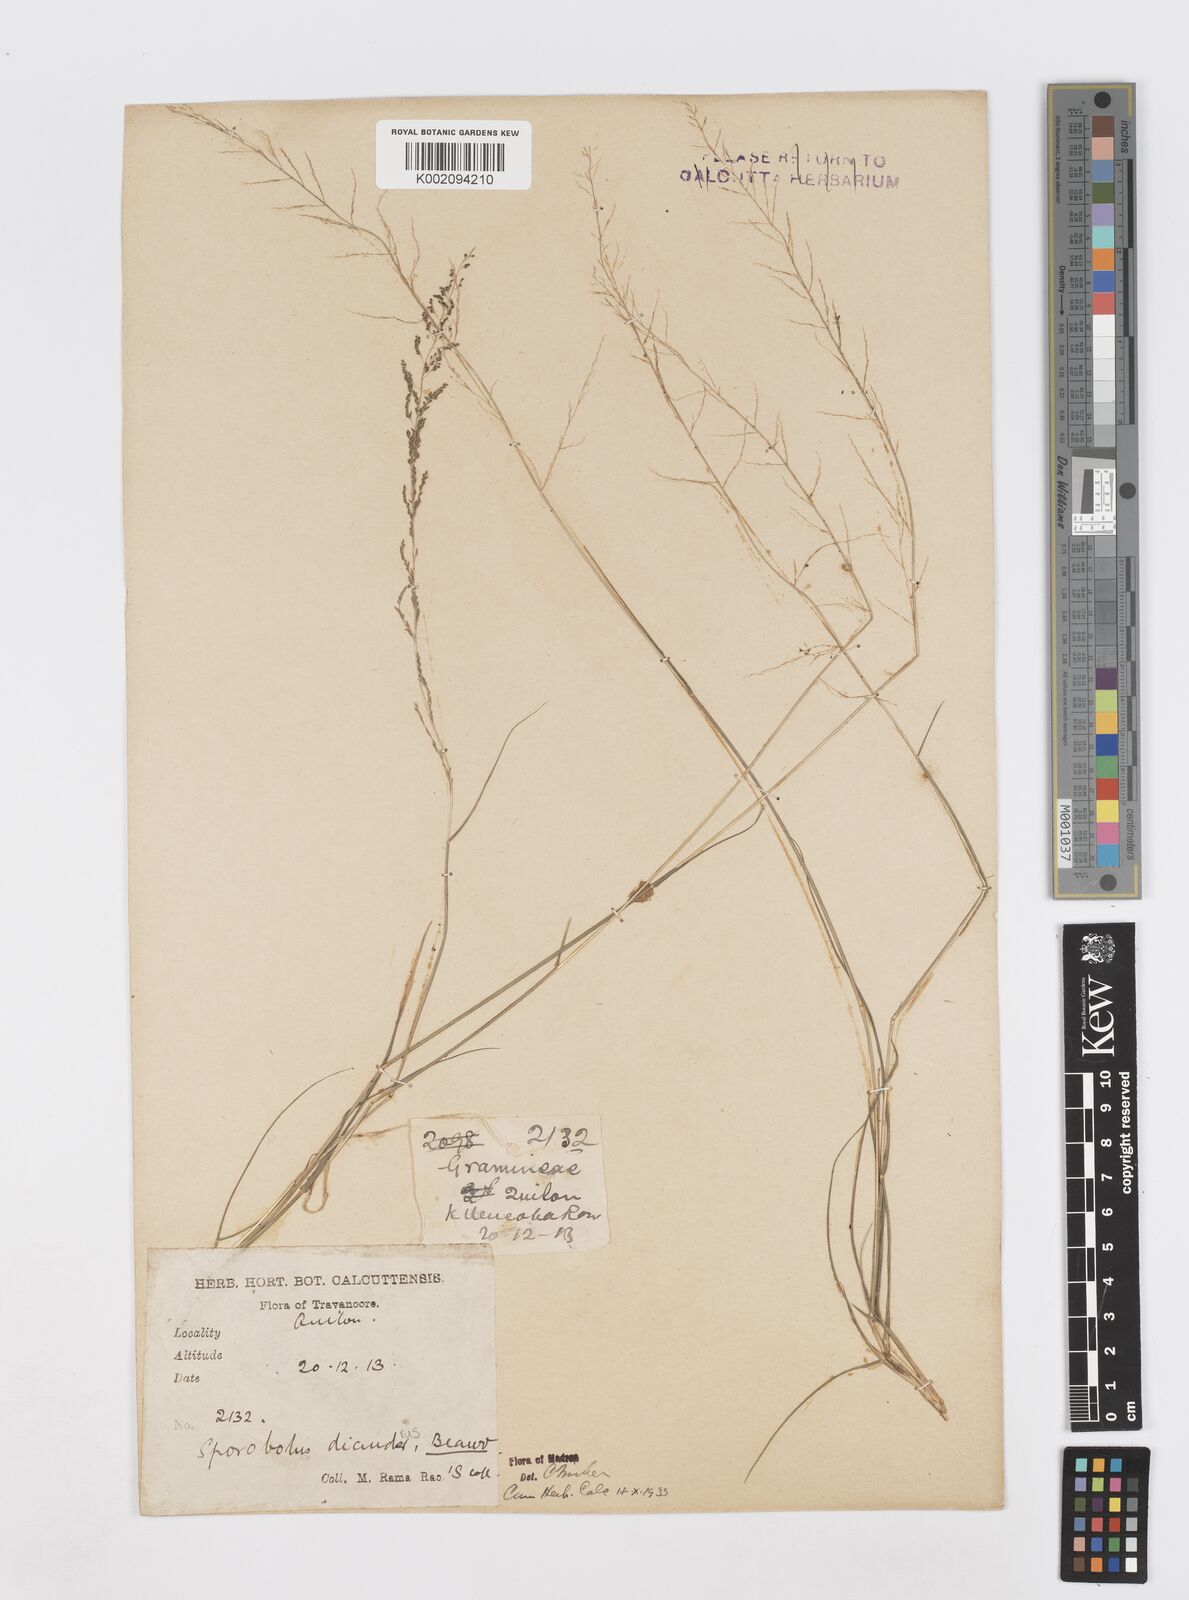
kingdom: Plantae
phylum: Tracheophyta
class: Liliopsida
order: Poales
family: Poaceae
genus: Sporobolus
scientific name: Sporobolus diandrus
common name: Tussock dropseed
